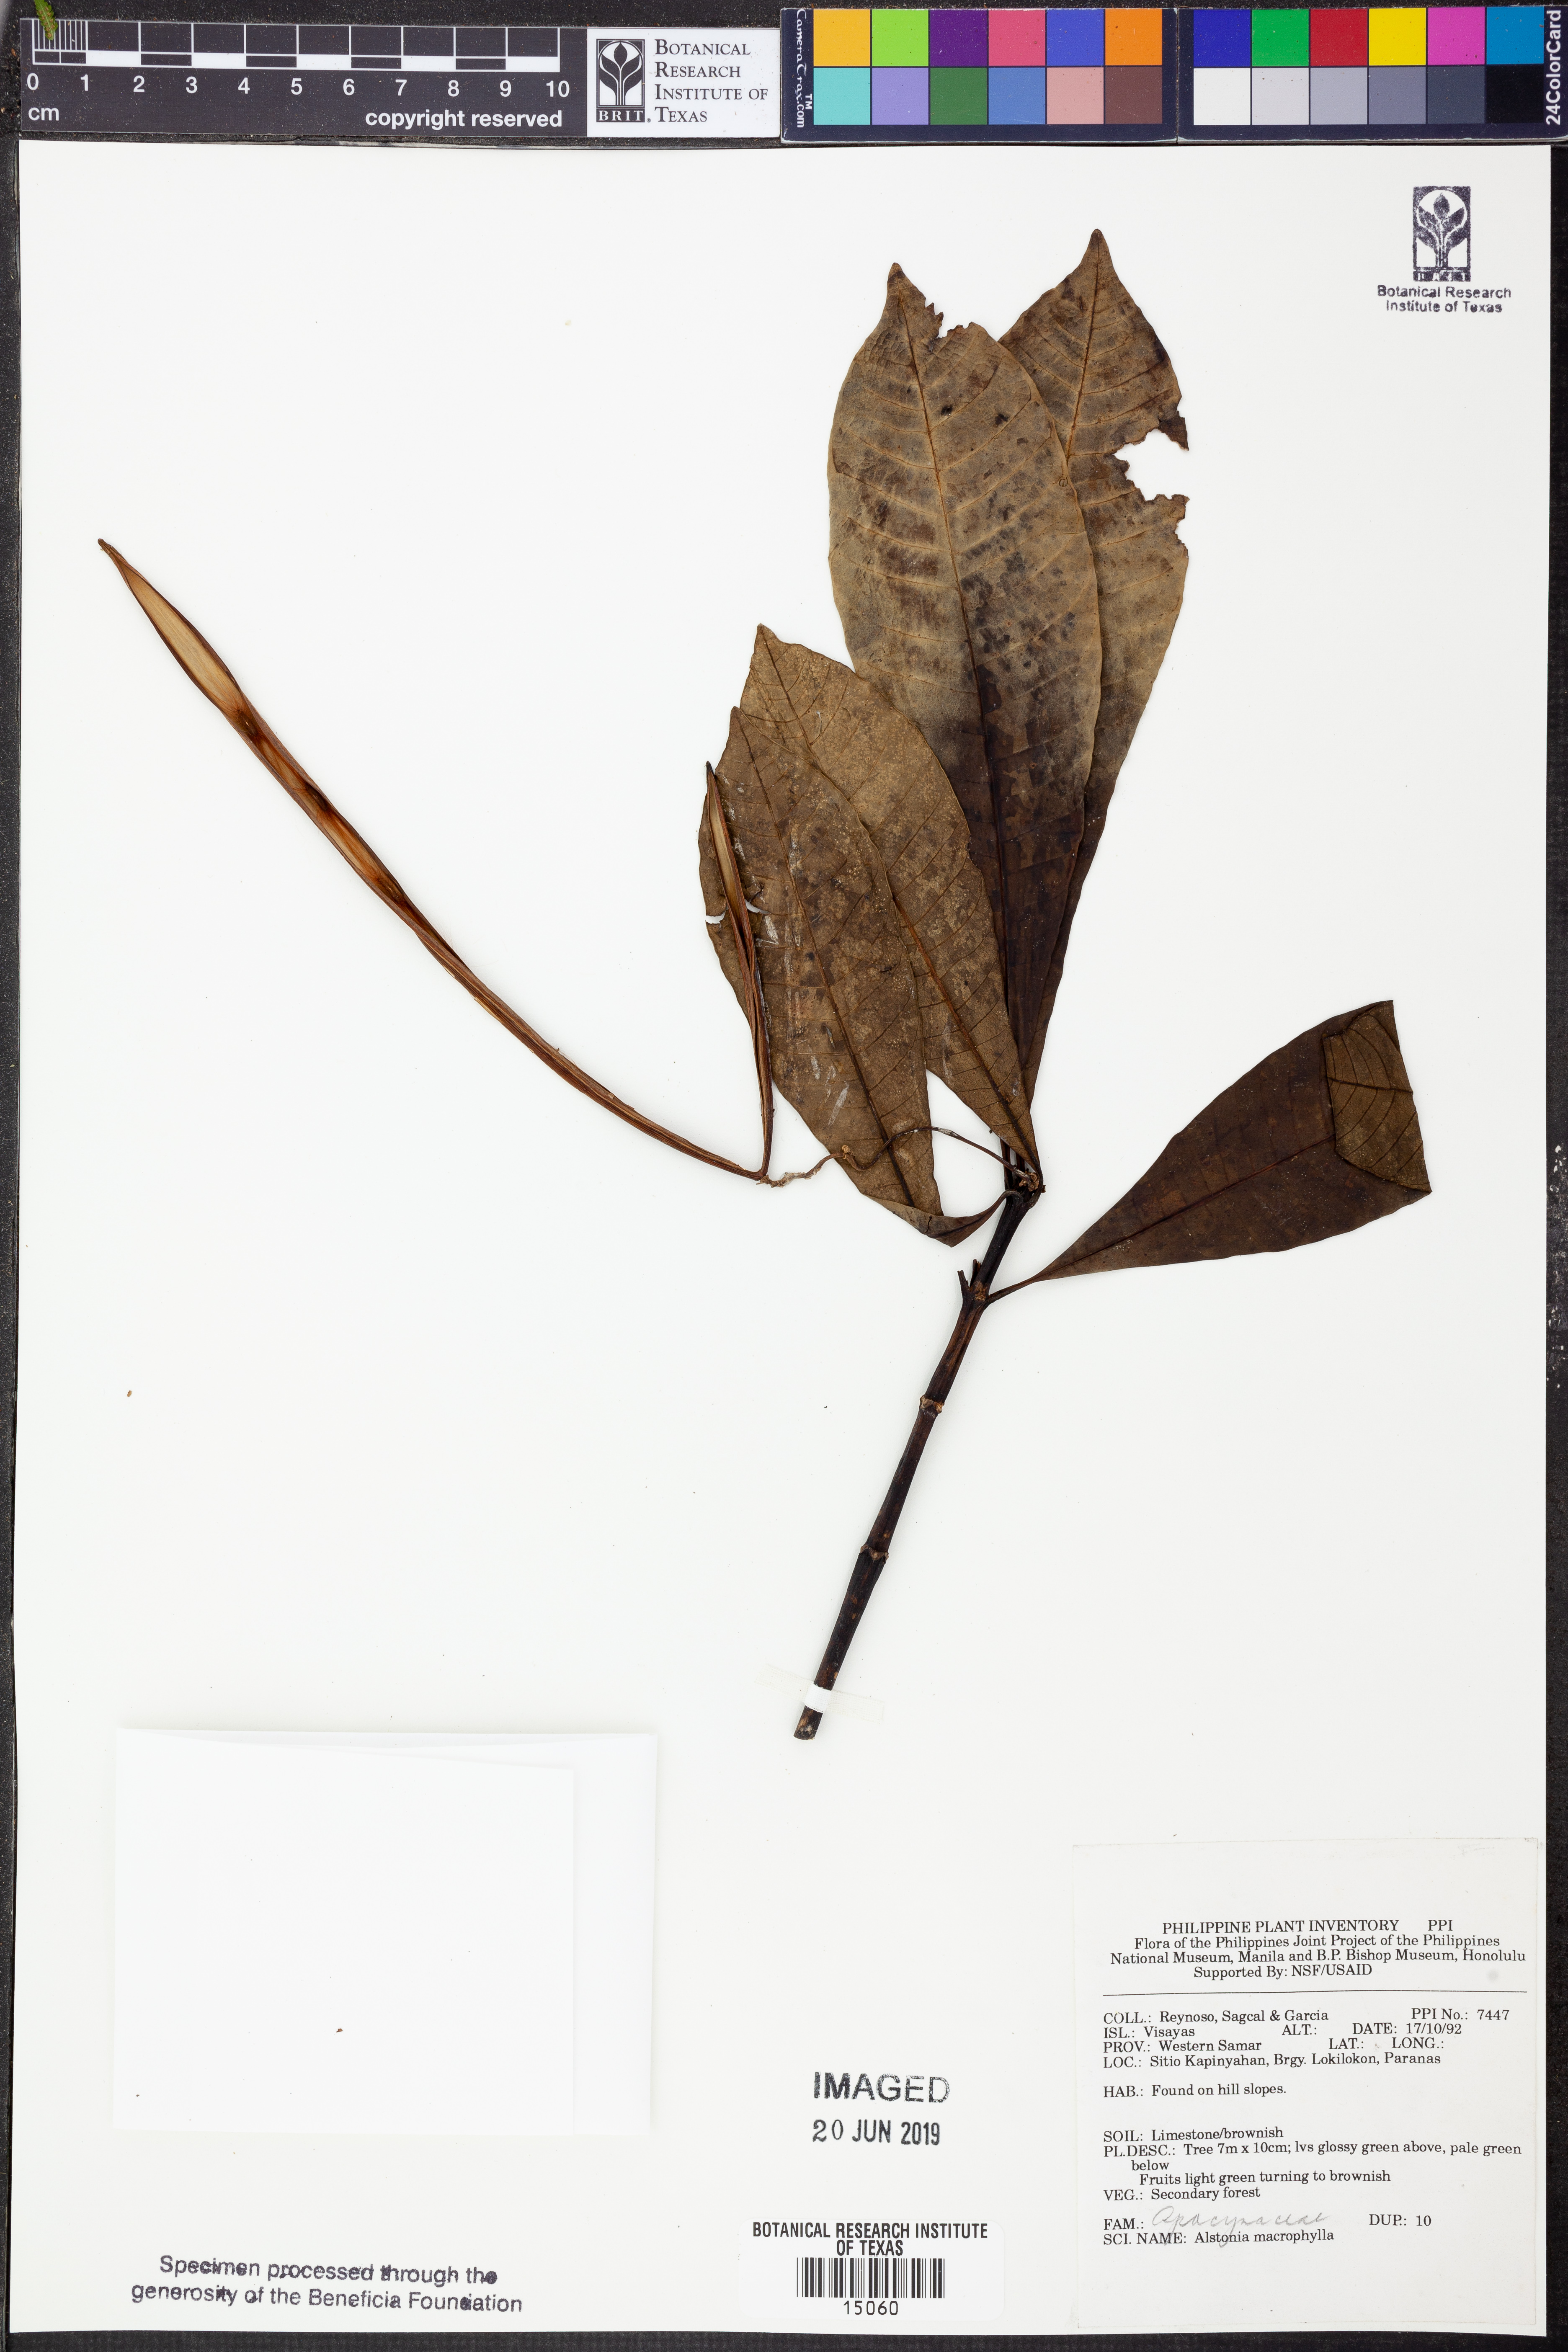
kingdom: Plantae
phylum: Tracheophyta
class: Magnoliopsida
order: Gentianales
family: Apocynaceae
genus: Alstonia
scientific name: Alstonia macrophylla
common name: Deviltree
